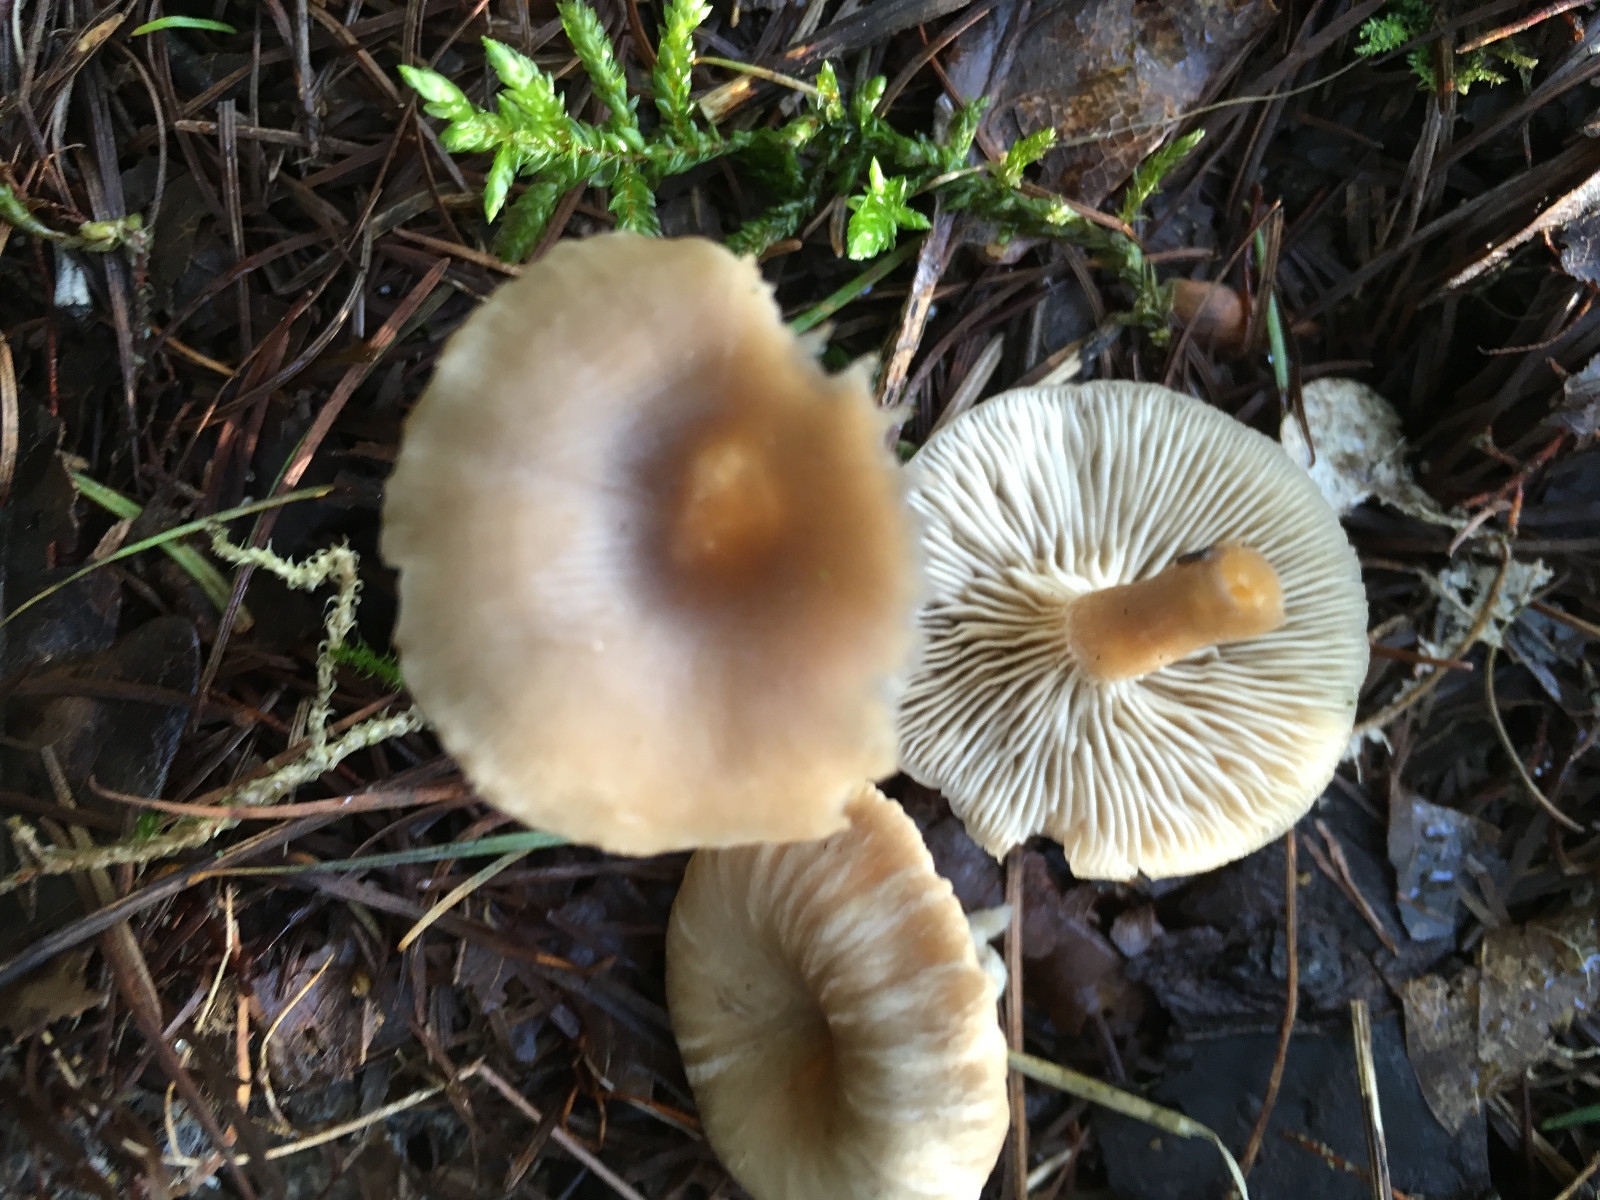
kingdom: Fungi
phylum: Basidiomycota
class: Agaricomycetes
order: Agaricales
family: Tricholomataceae
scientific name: Tricholomataceae
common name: ridderhatfamilien
